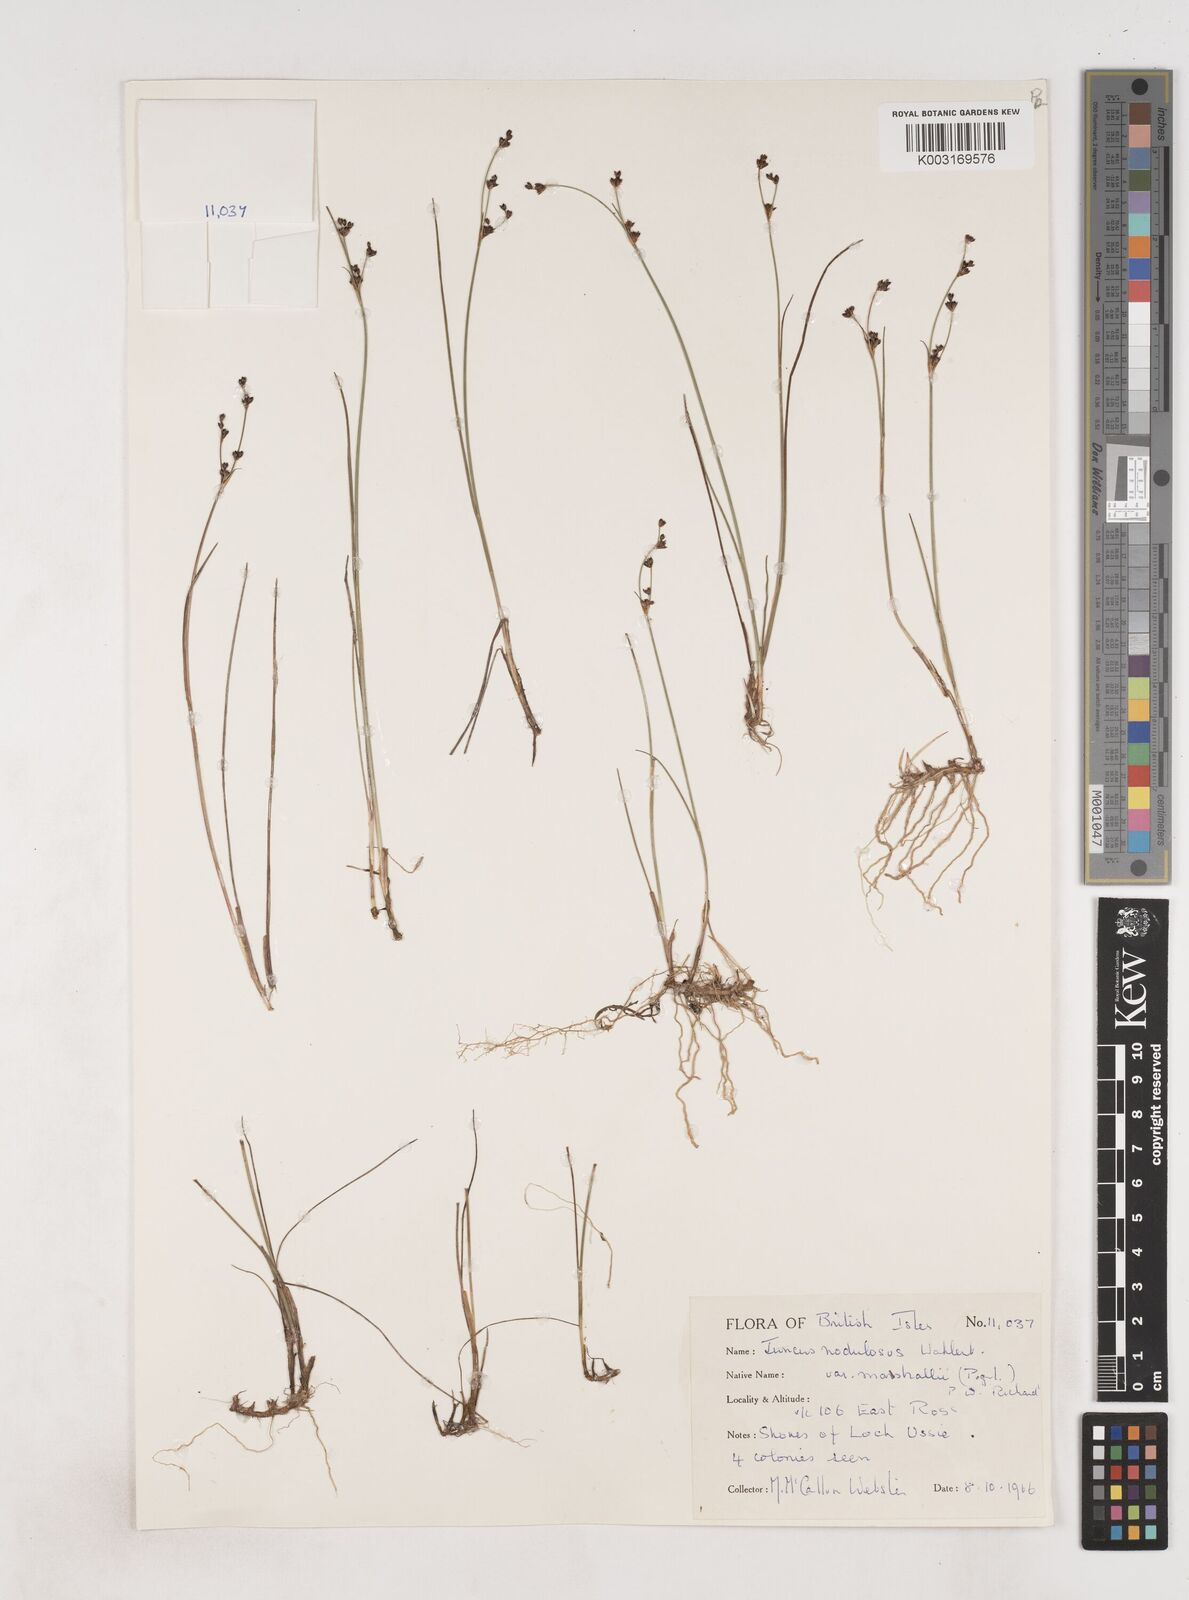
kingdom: Plantae
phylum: Tracheophyta
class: Liliopsida
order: Poales
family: Juncaceae
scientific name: Juncaceae
